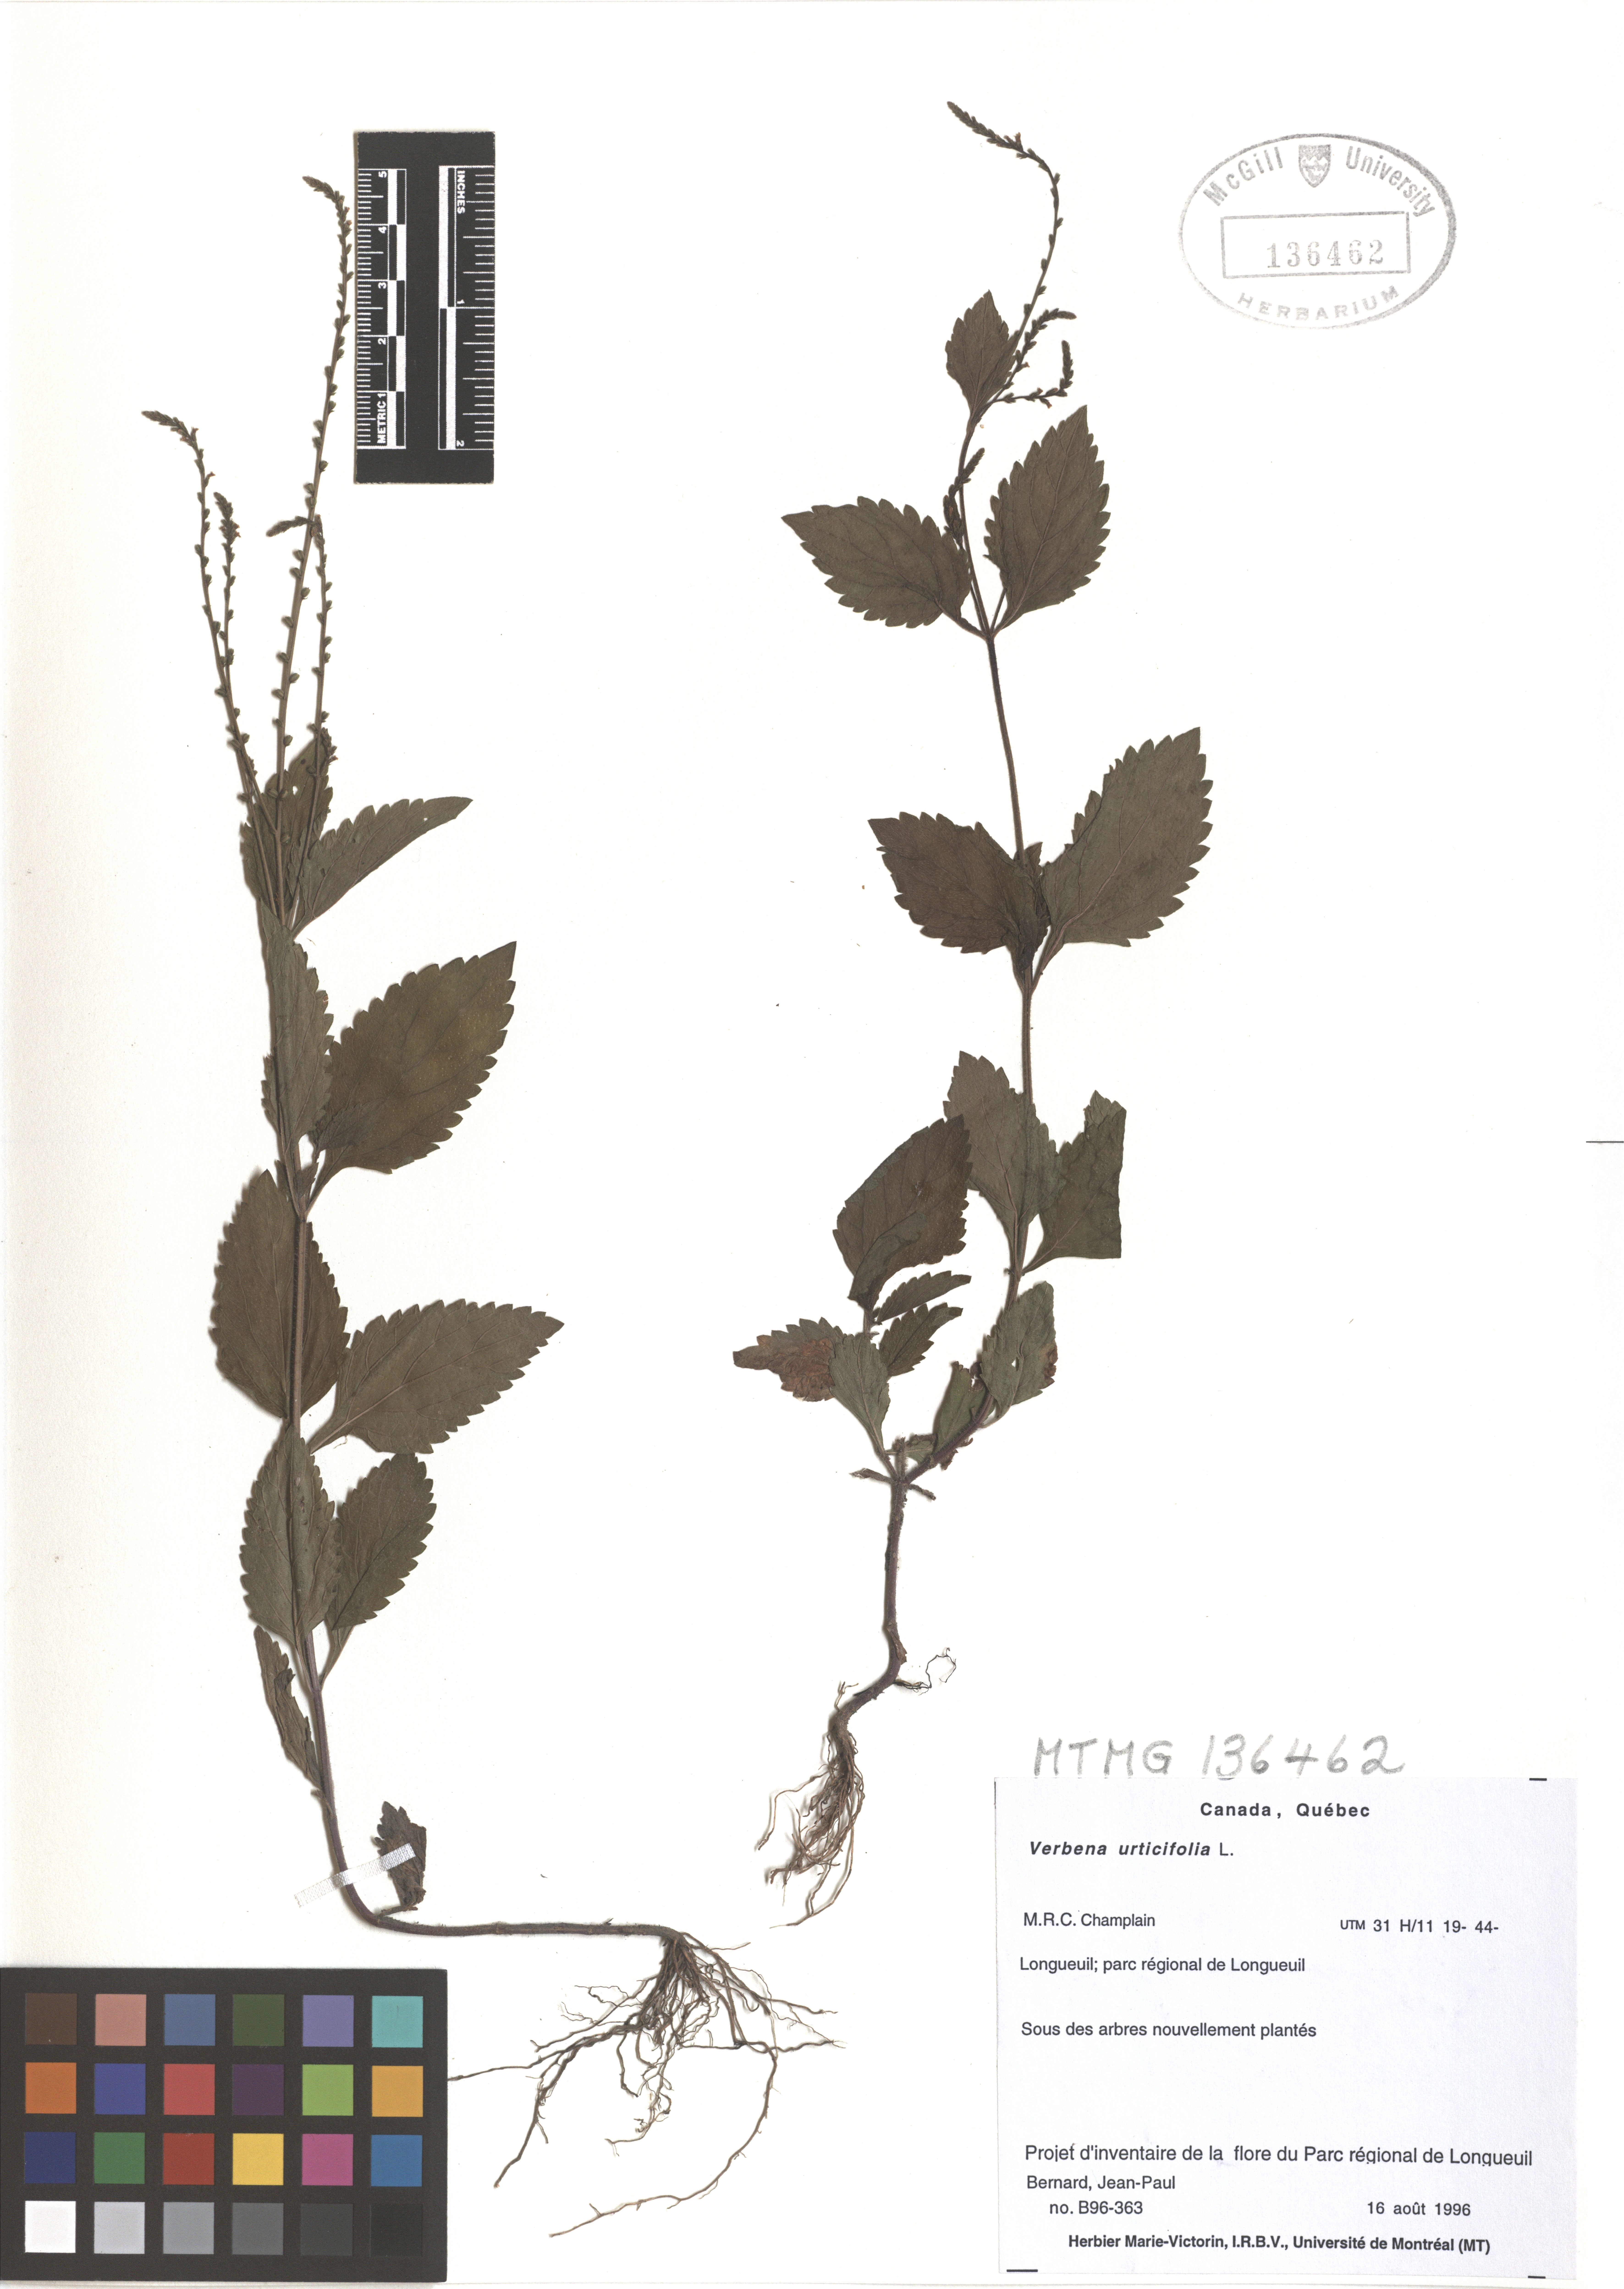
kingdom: Plantae
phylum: Tracheophyta
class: Magnoliopsida
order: Lamiales
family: Verbenaceae
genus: Verbena
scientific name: Verbena urticifolia
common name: Nettle-leaved vervain
